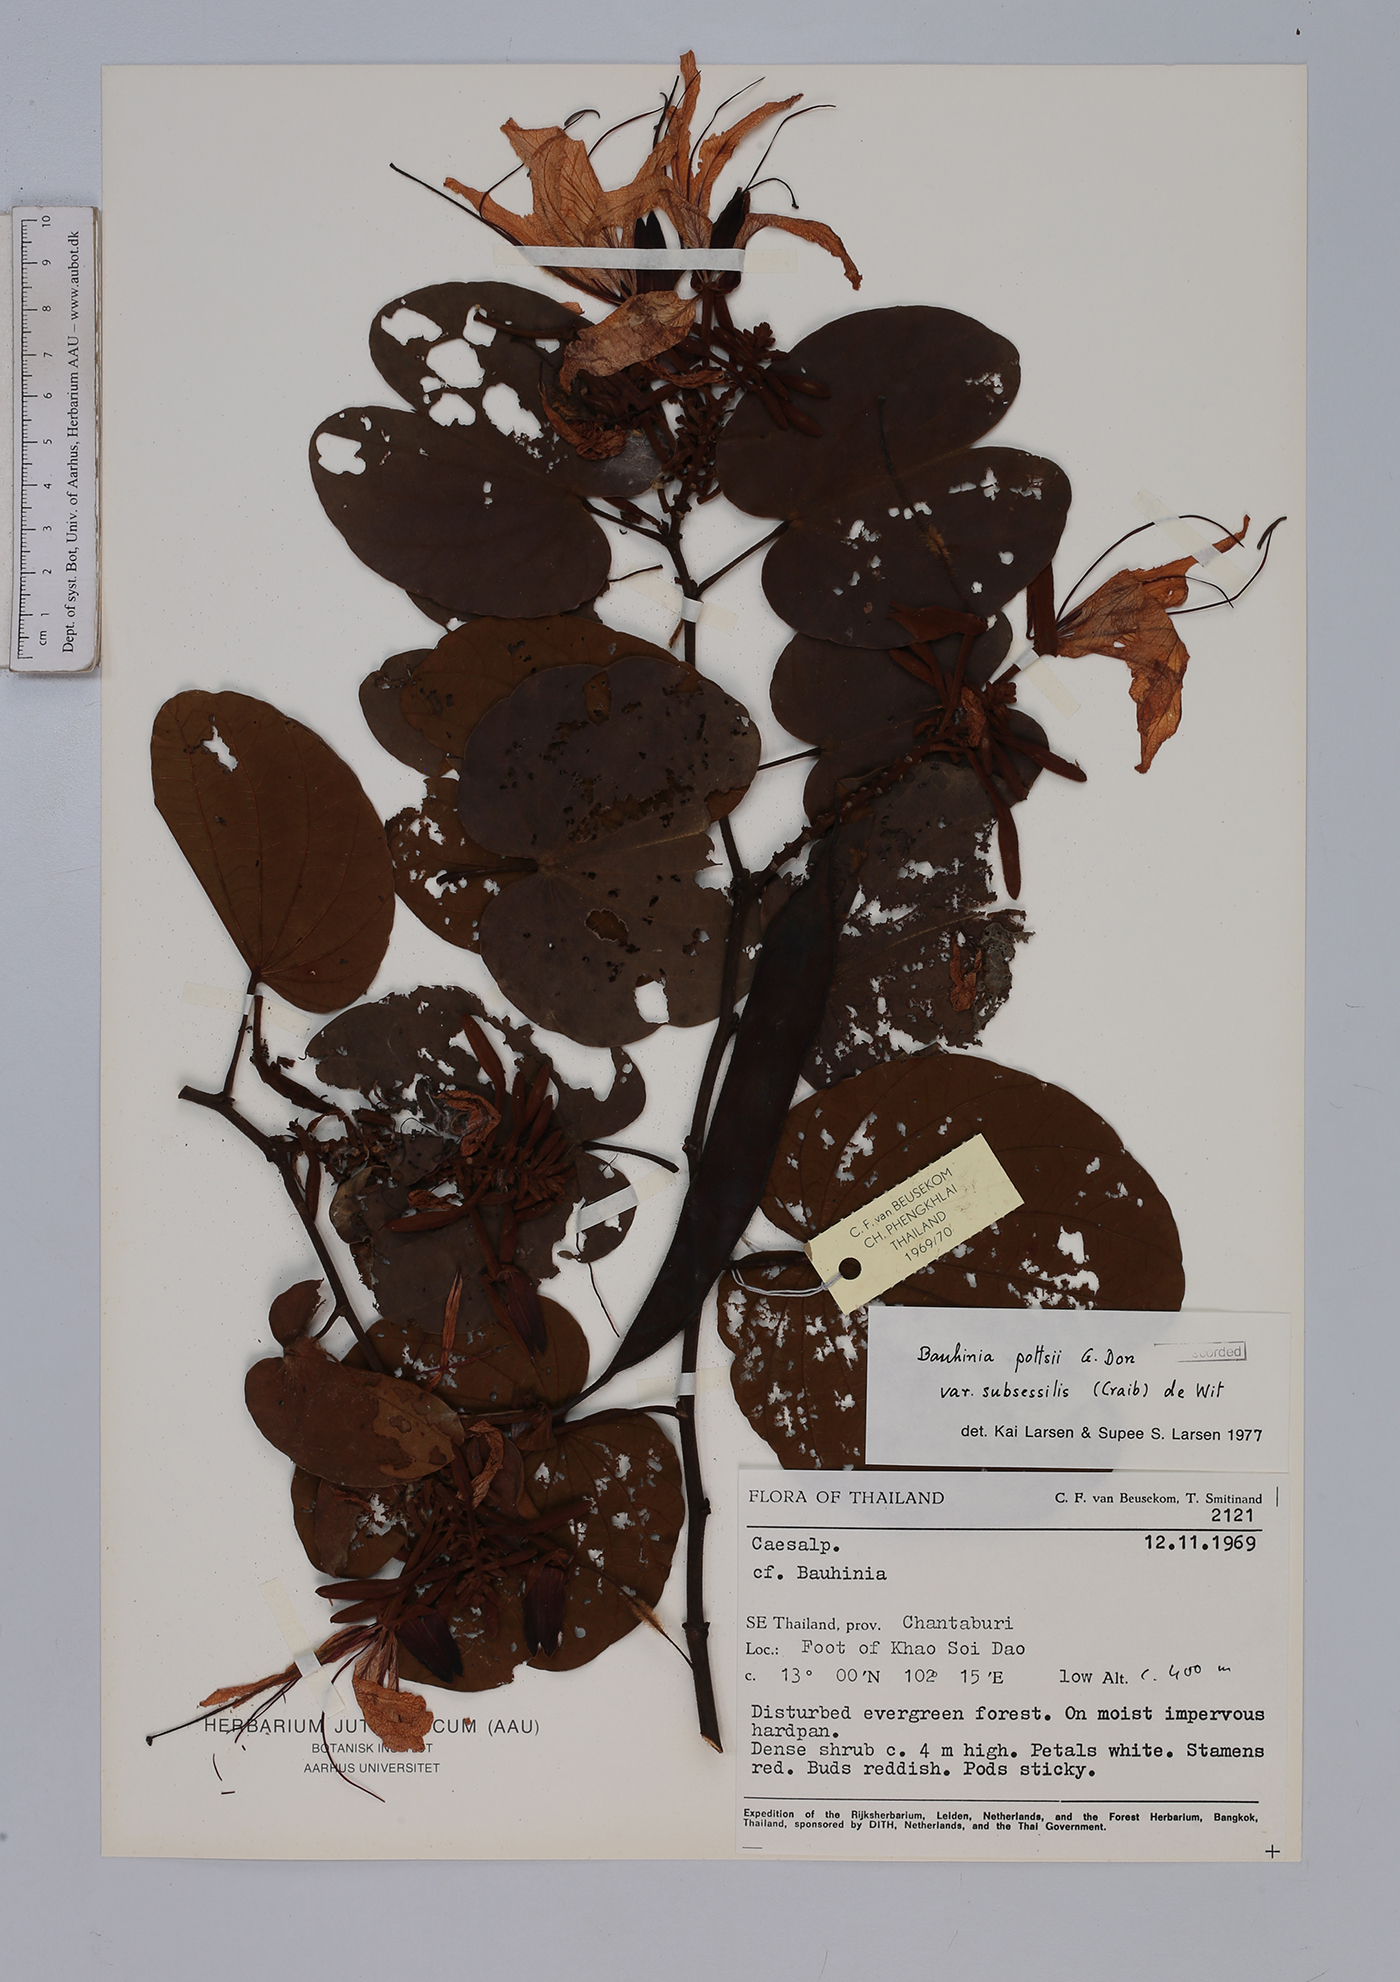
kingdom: Plantae
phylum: Tracheophyta
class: Magnoliopsida
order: Fabales
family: Fabaceae
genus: Bauhinia
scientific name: Bauhinia pottsii
